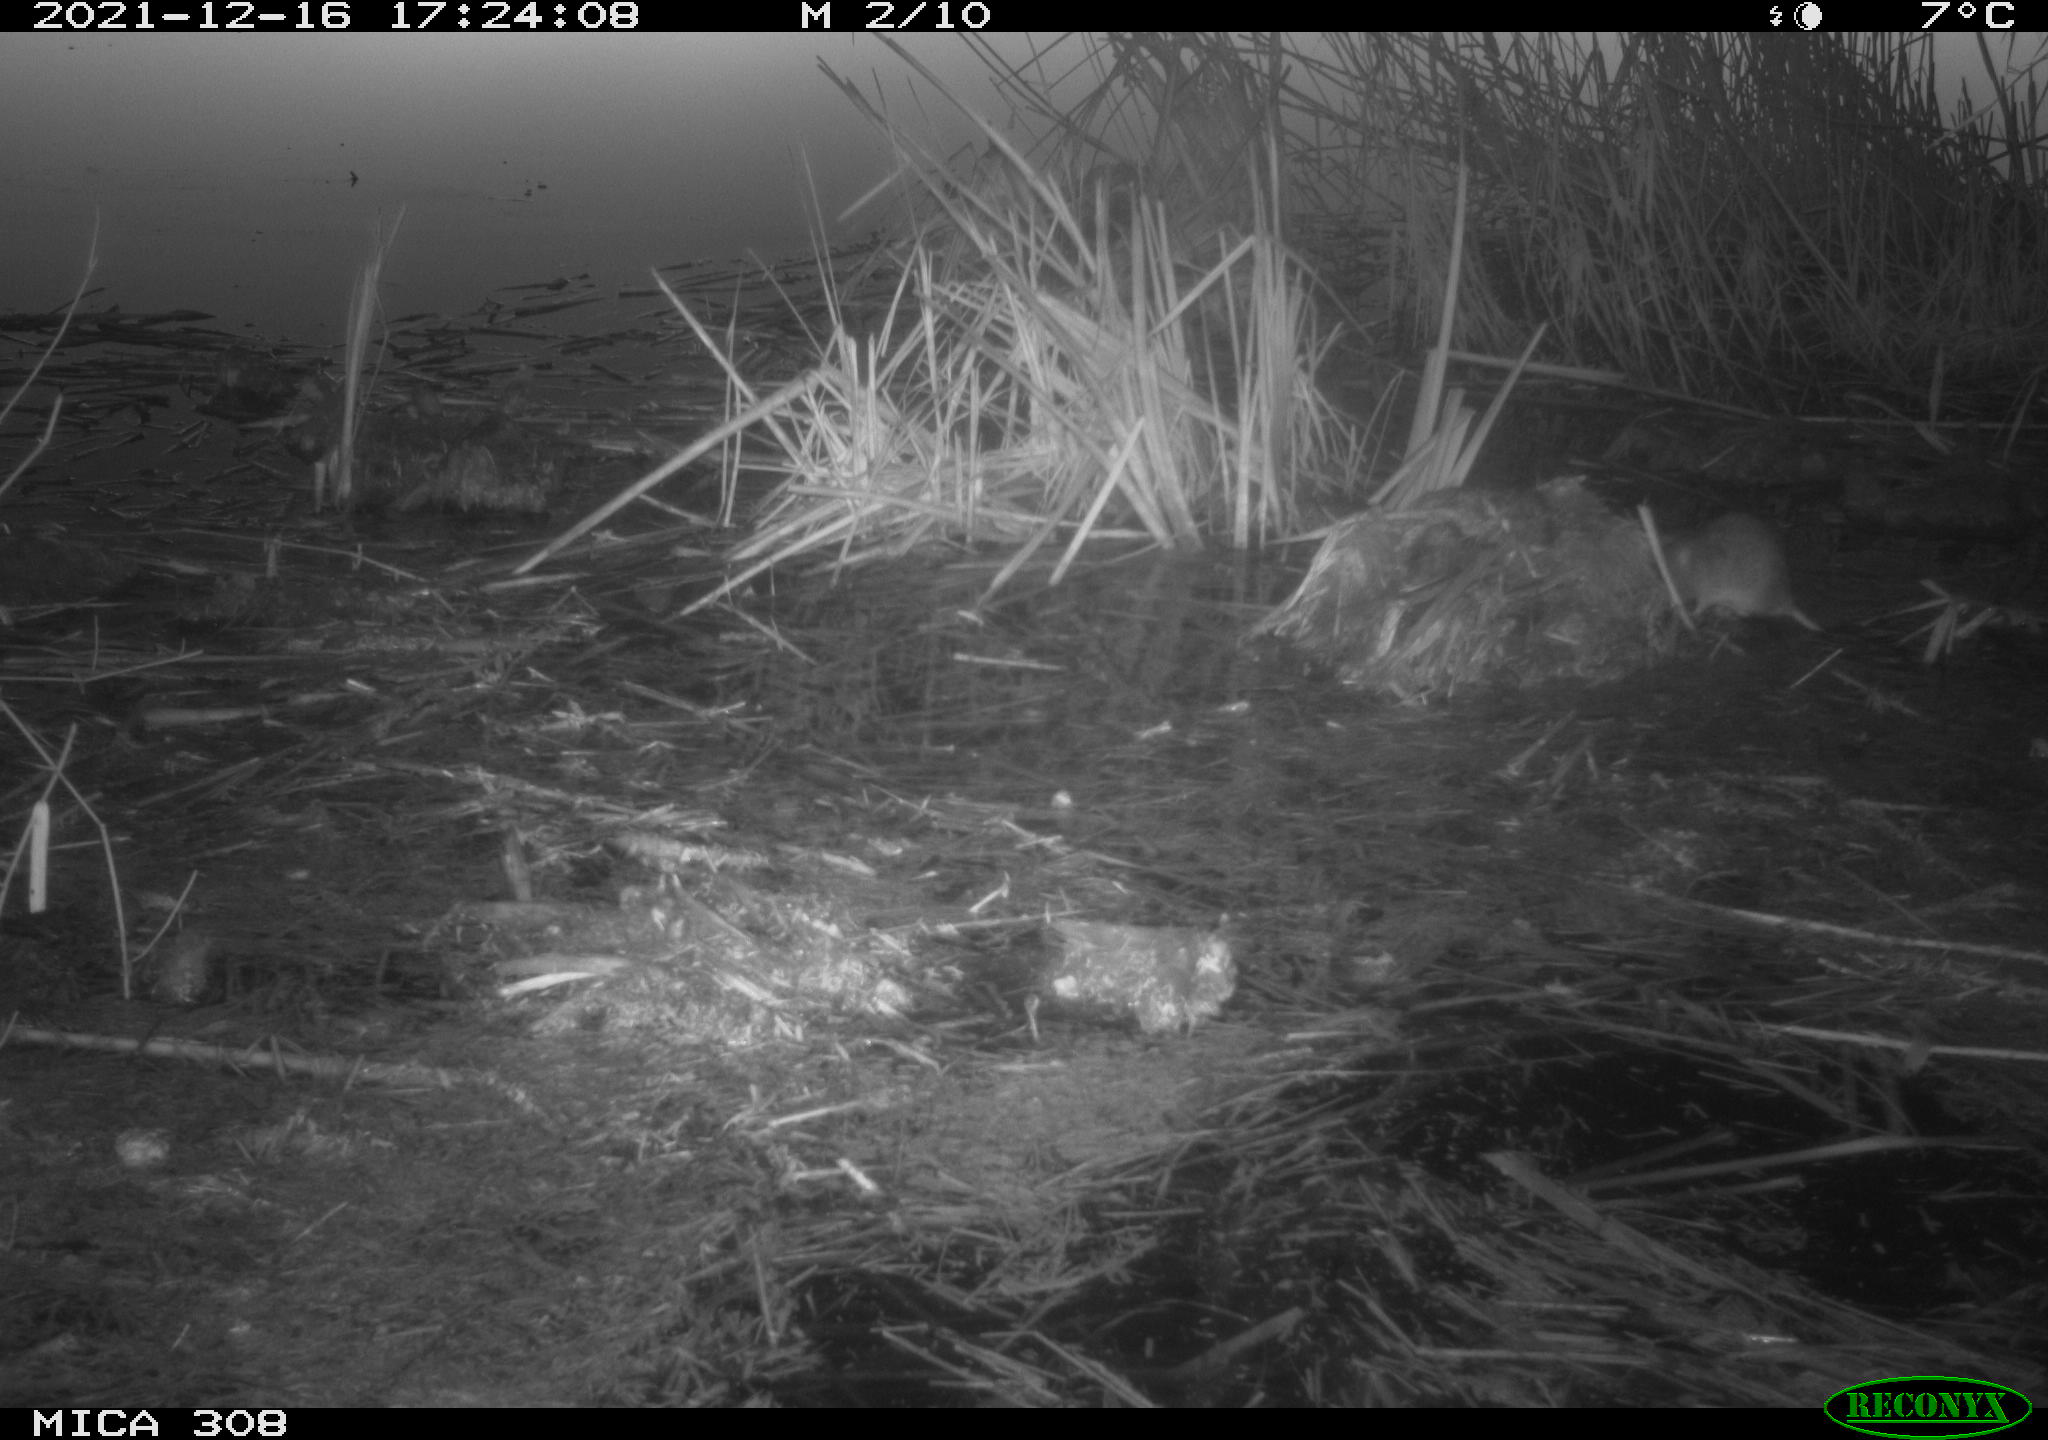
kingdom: Animalia
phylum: Chordata
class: Mammalia
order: Rodentia
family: Muridae
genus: Rattus
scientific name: Rattus norvegicus
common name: Brown rat
